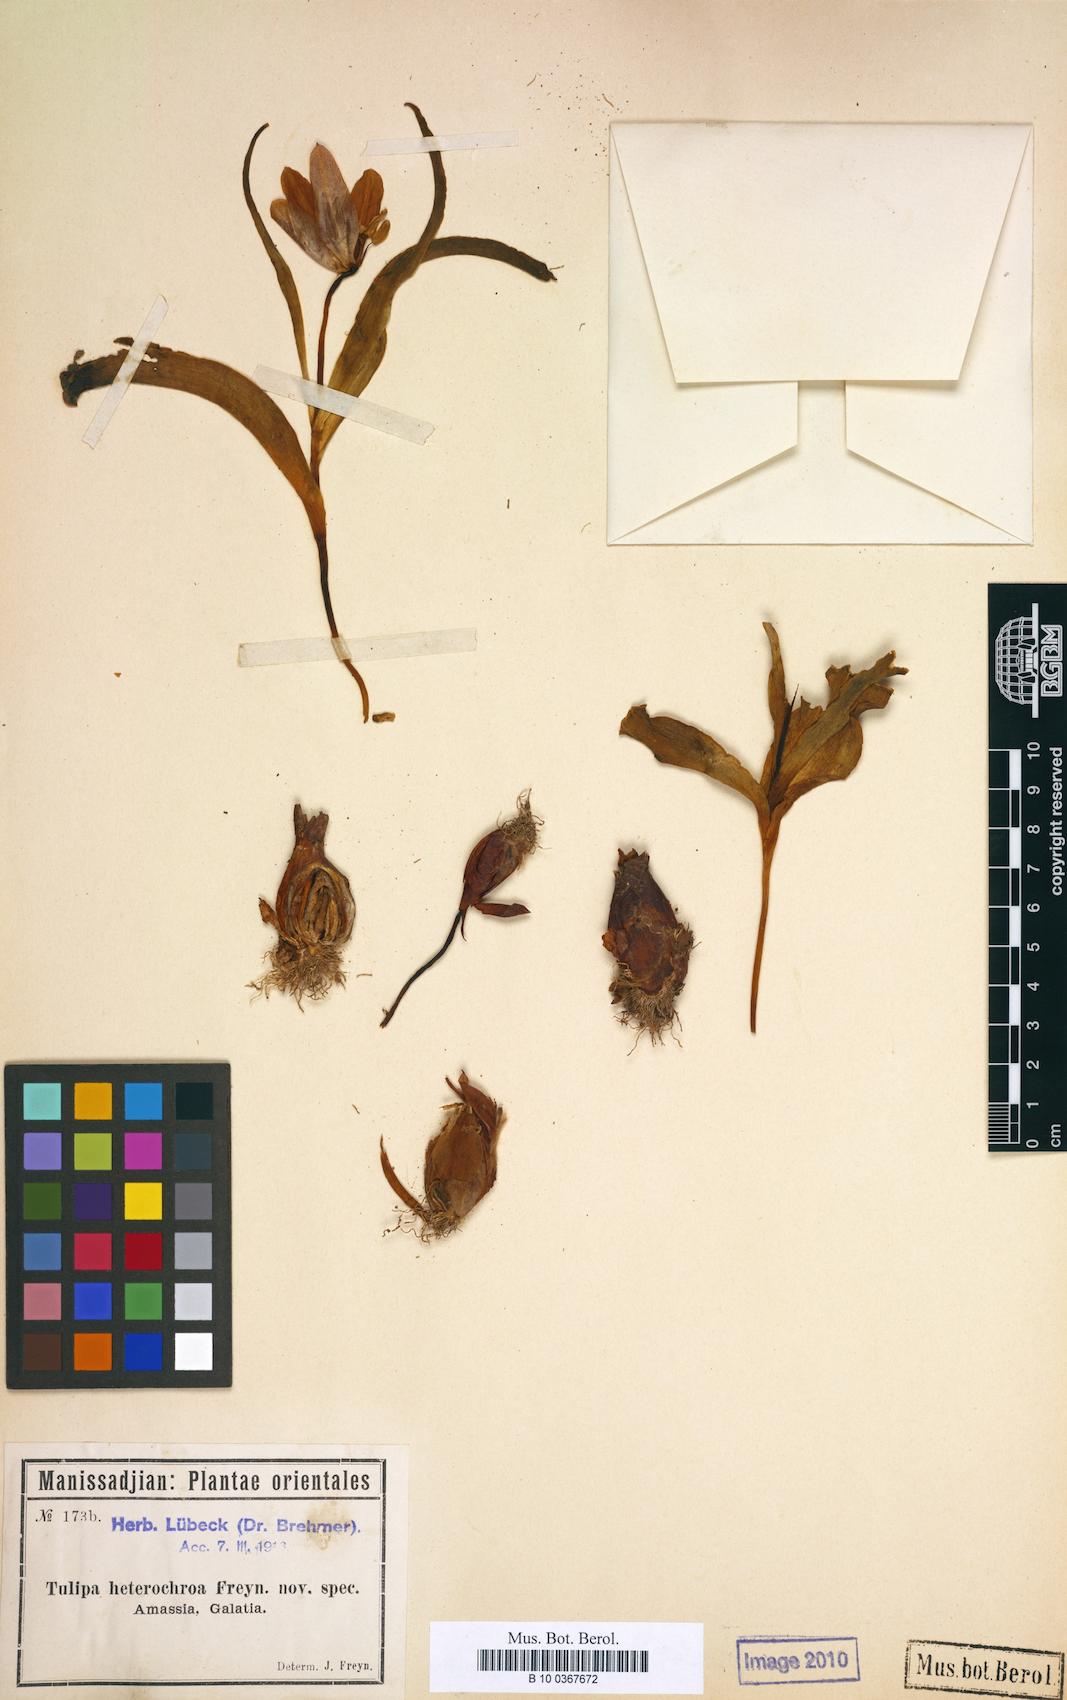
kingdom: Plantae
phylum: Tracheophyta
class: Liliopsida
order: Liliales
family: Liliaceae
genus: Tulipa
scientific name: Tulipa foliosa
